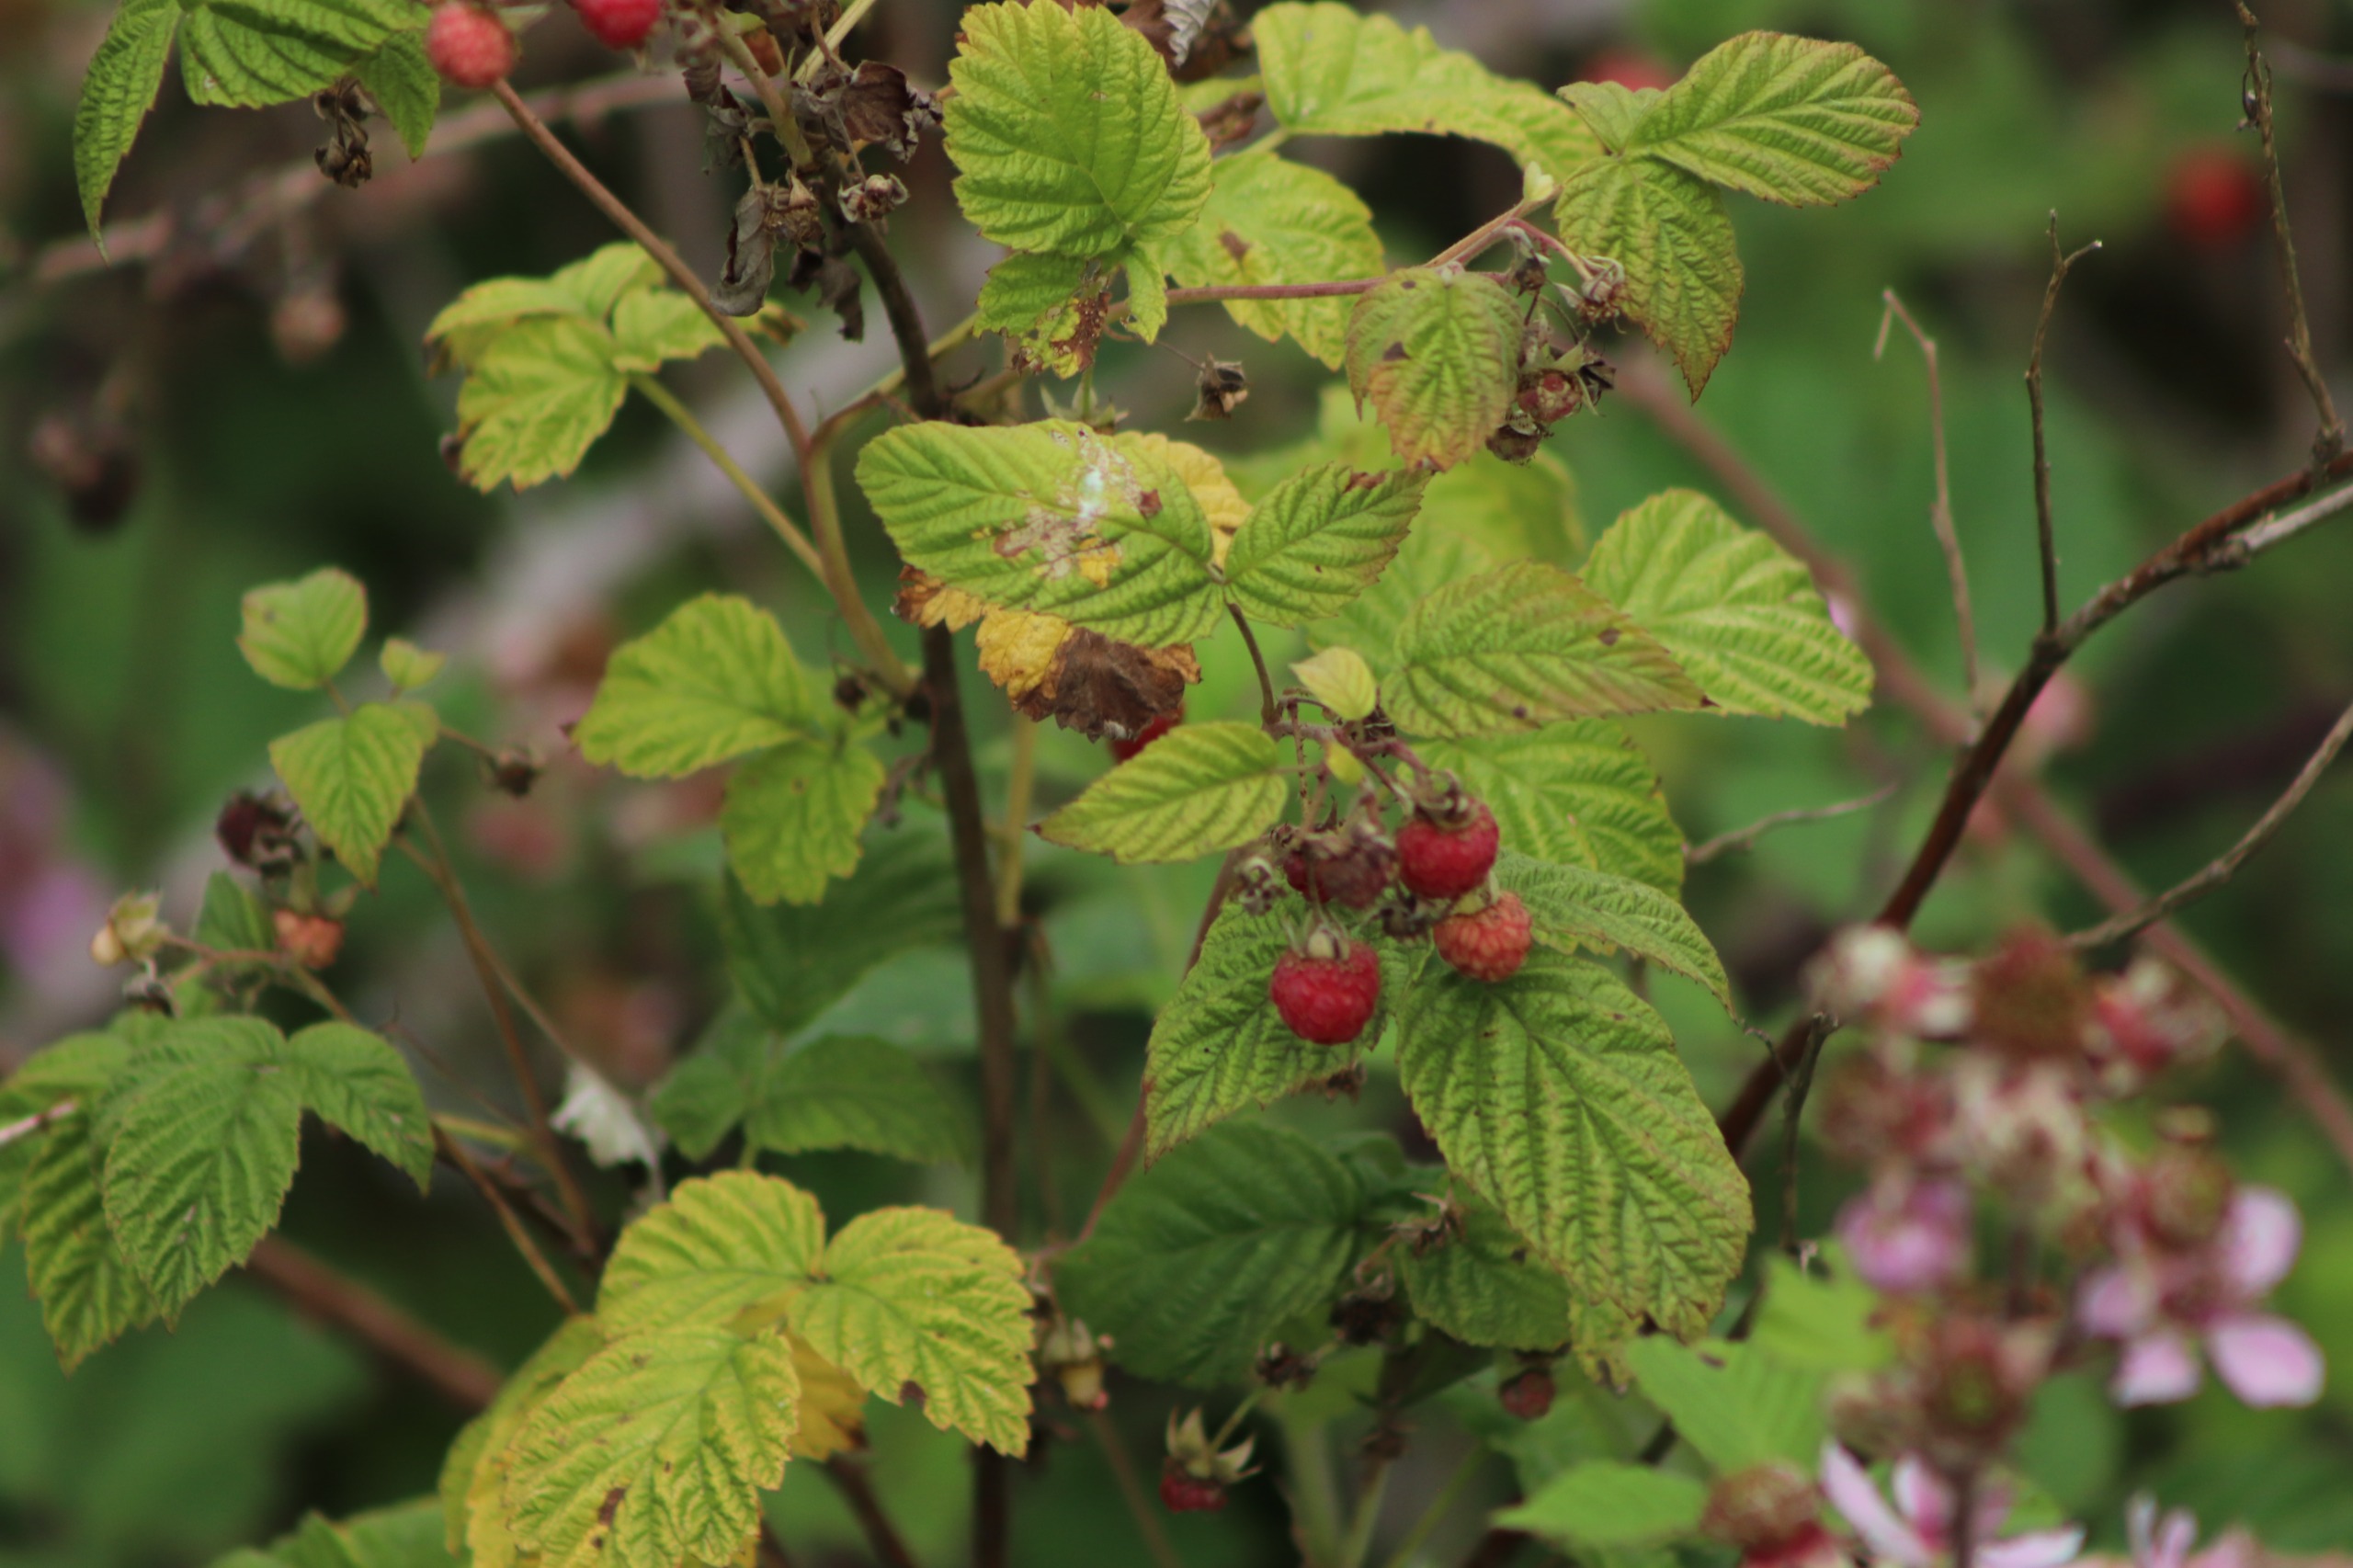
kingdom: Plantae
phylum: Tracheophyta
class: Magnoliopsida
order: Rosales
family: Rosaceae
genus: Rubus
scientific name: Rubus idaeus
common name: Hindbær
